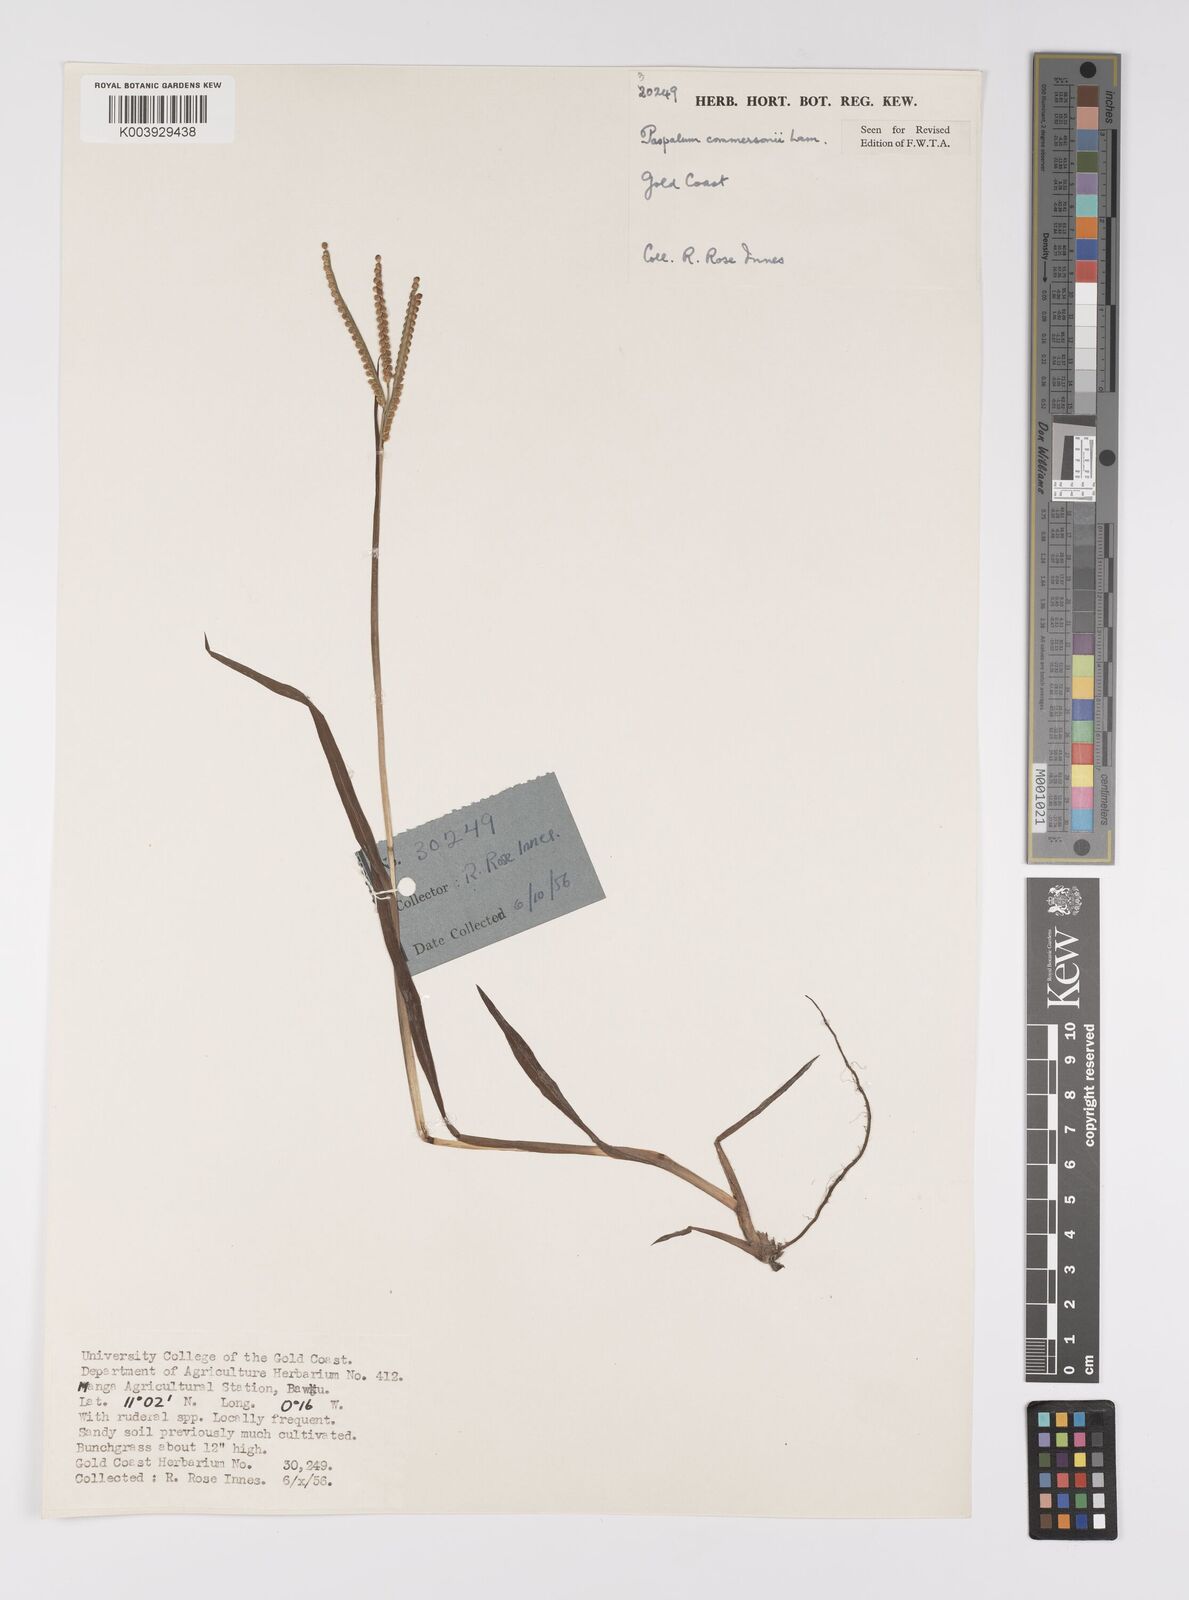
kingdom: Plantae
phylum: Tracheophyta
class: Liliopsida
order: Poales
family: Poaceae
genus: Paspalum
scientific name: Paspalum scrobiculatum
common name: Kodo millet
